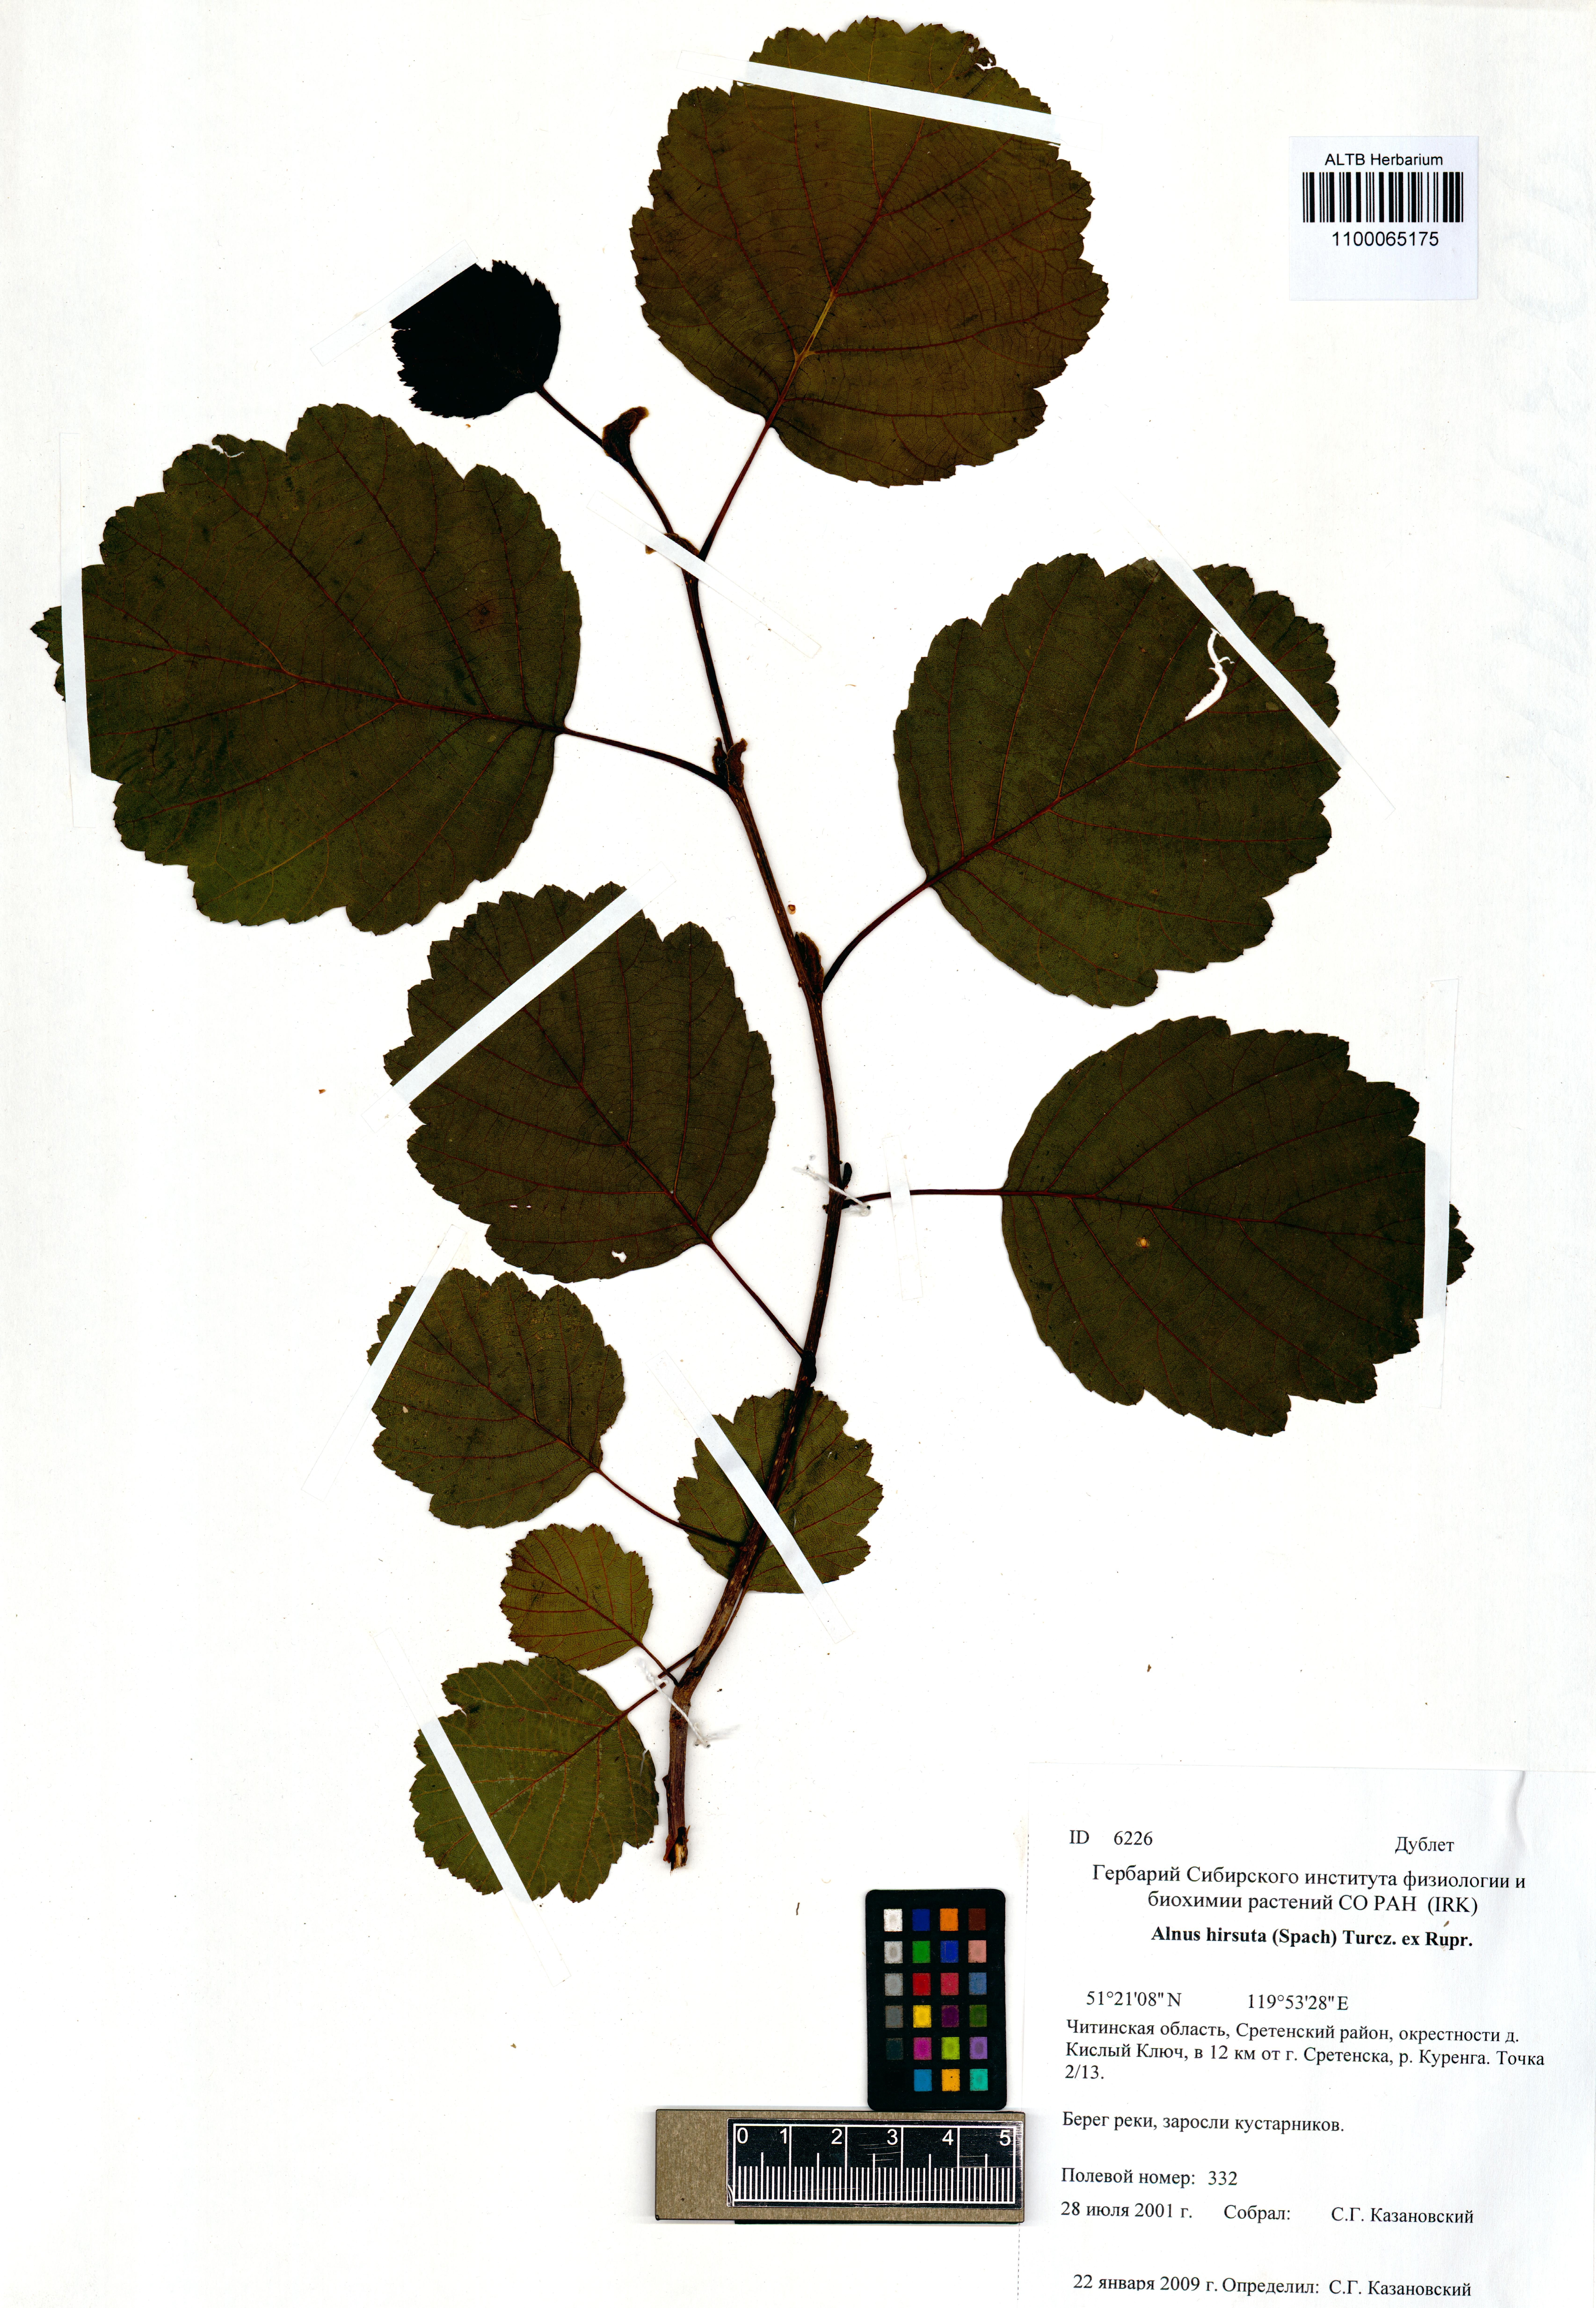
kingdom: Plantae
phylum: Tracheophyta
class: Magnoliopsida
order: Fagales
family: Betulaceae
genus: Alnus
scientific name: Alnus hirsuta
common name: Manchurian alder
